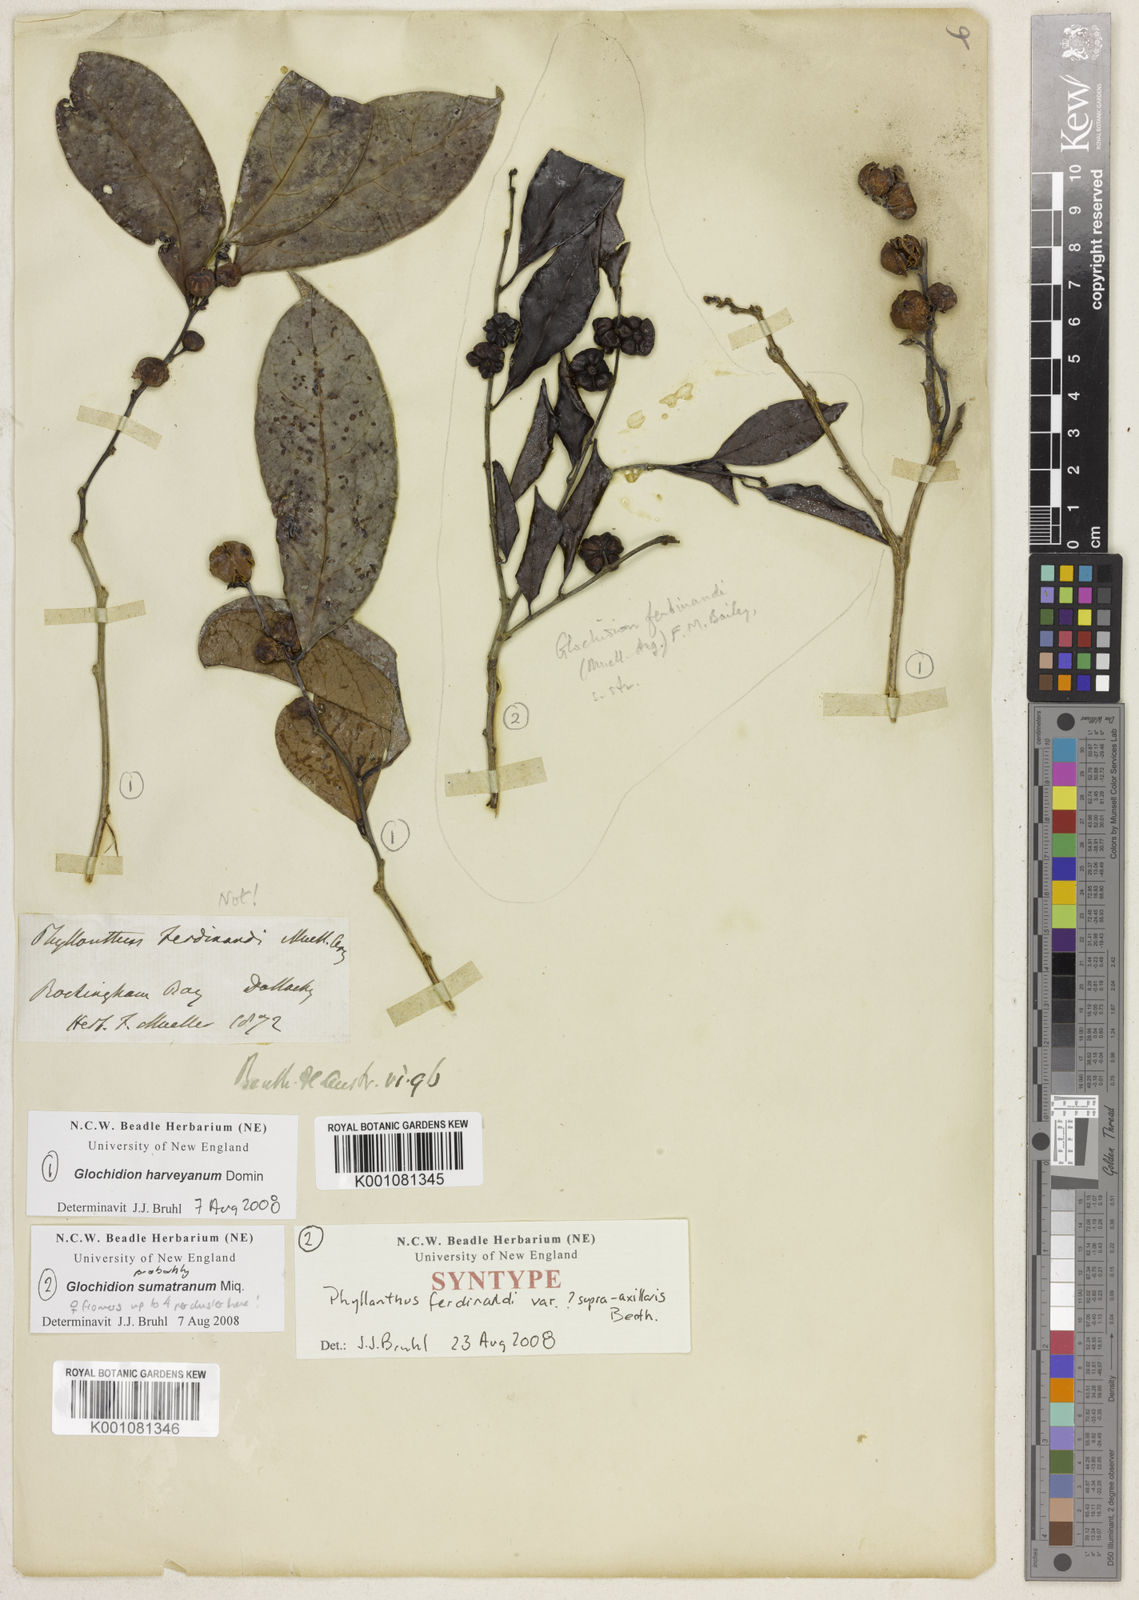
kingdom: Plantae
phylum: Tracheophyta
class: Magnoliopsida
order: Malpighiales
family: Phyllanthaceae
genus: Glochidion
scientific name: Glochidion zeylanicum
